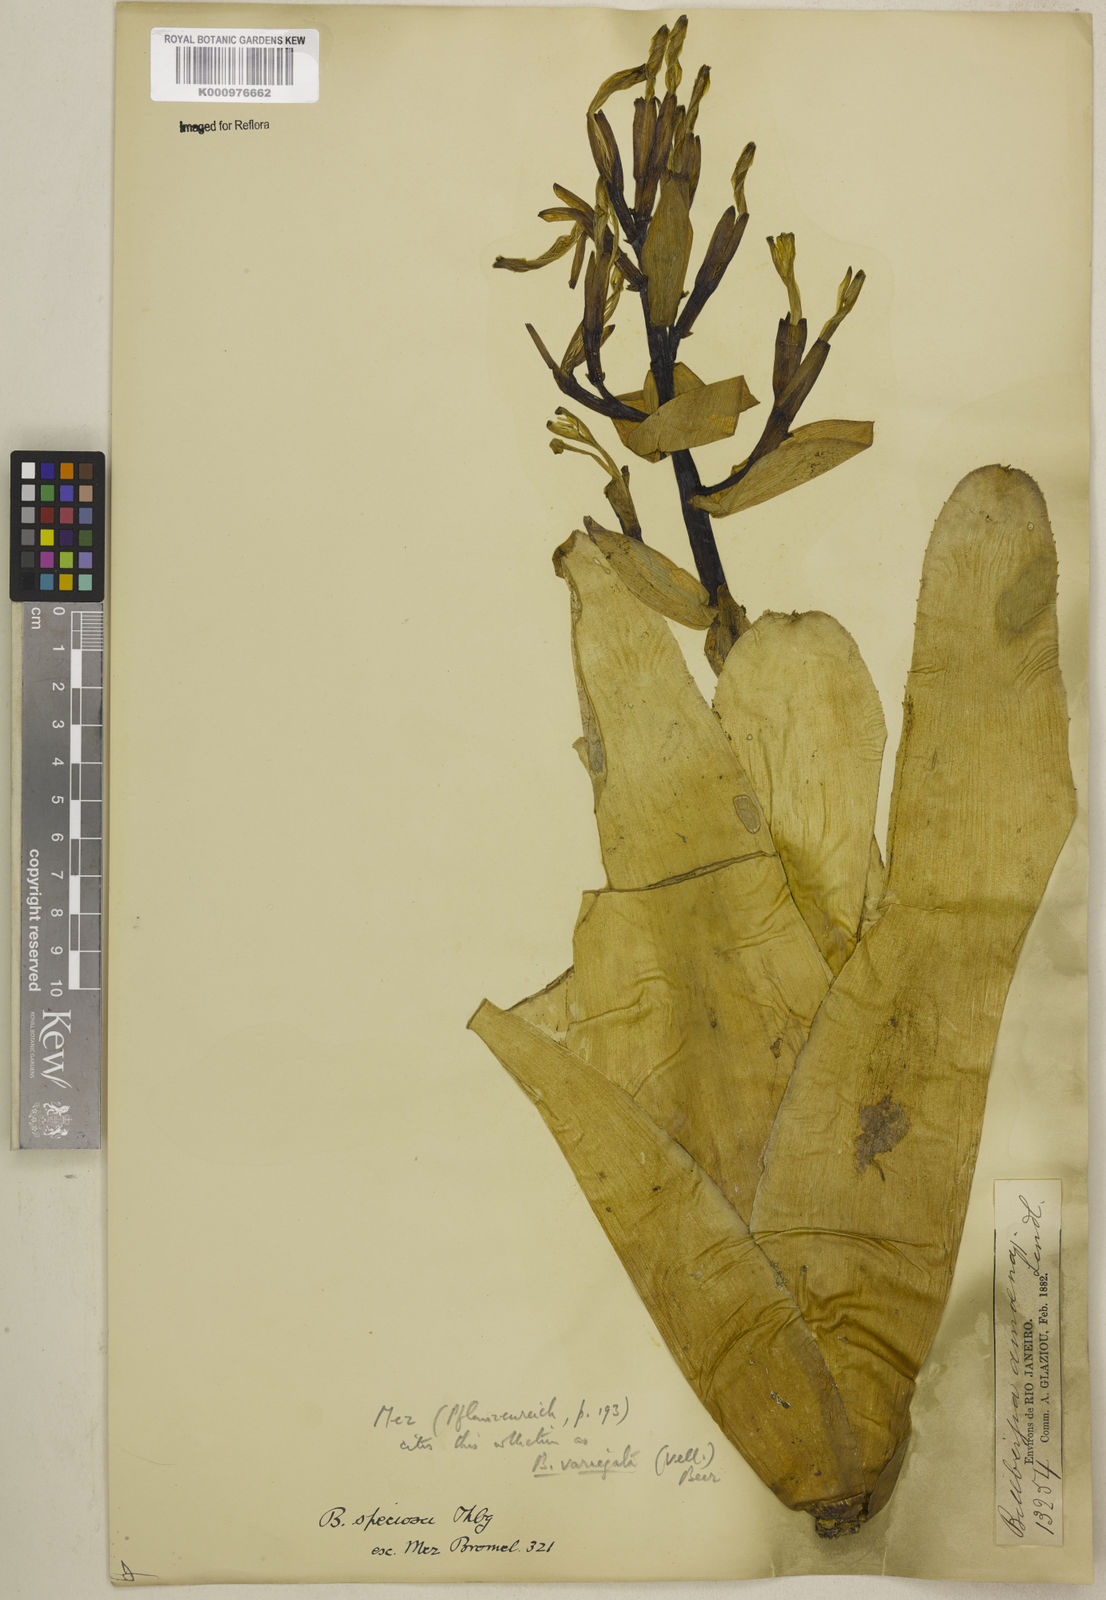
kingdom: Plantae
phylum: Tracheophyta
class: Liliopsida
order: Poales
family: Bromeliaceae
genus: Billbergia
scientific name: Billbergia amoena
